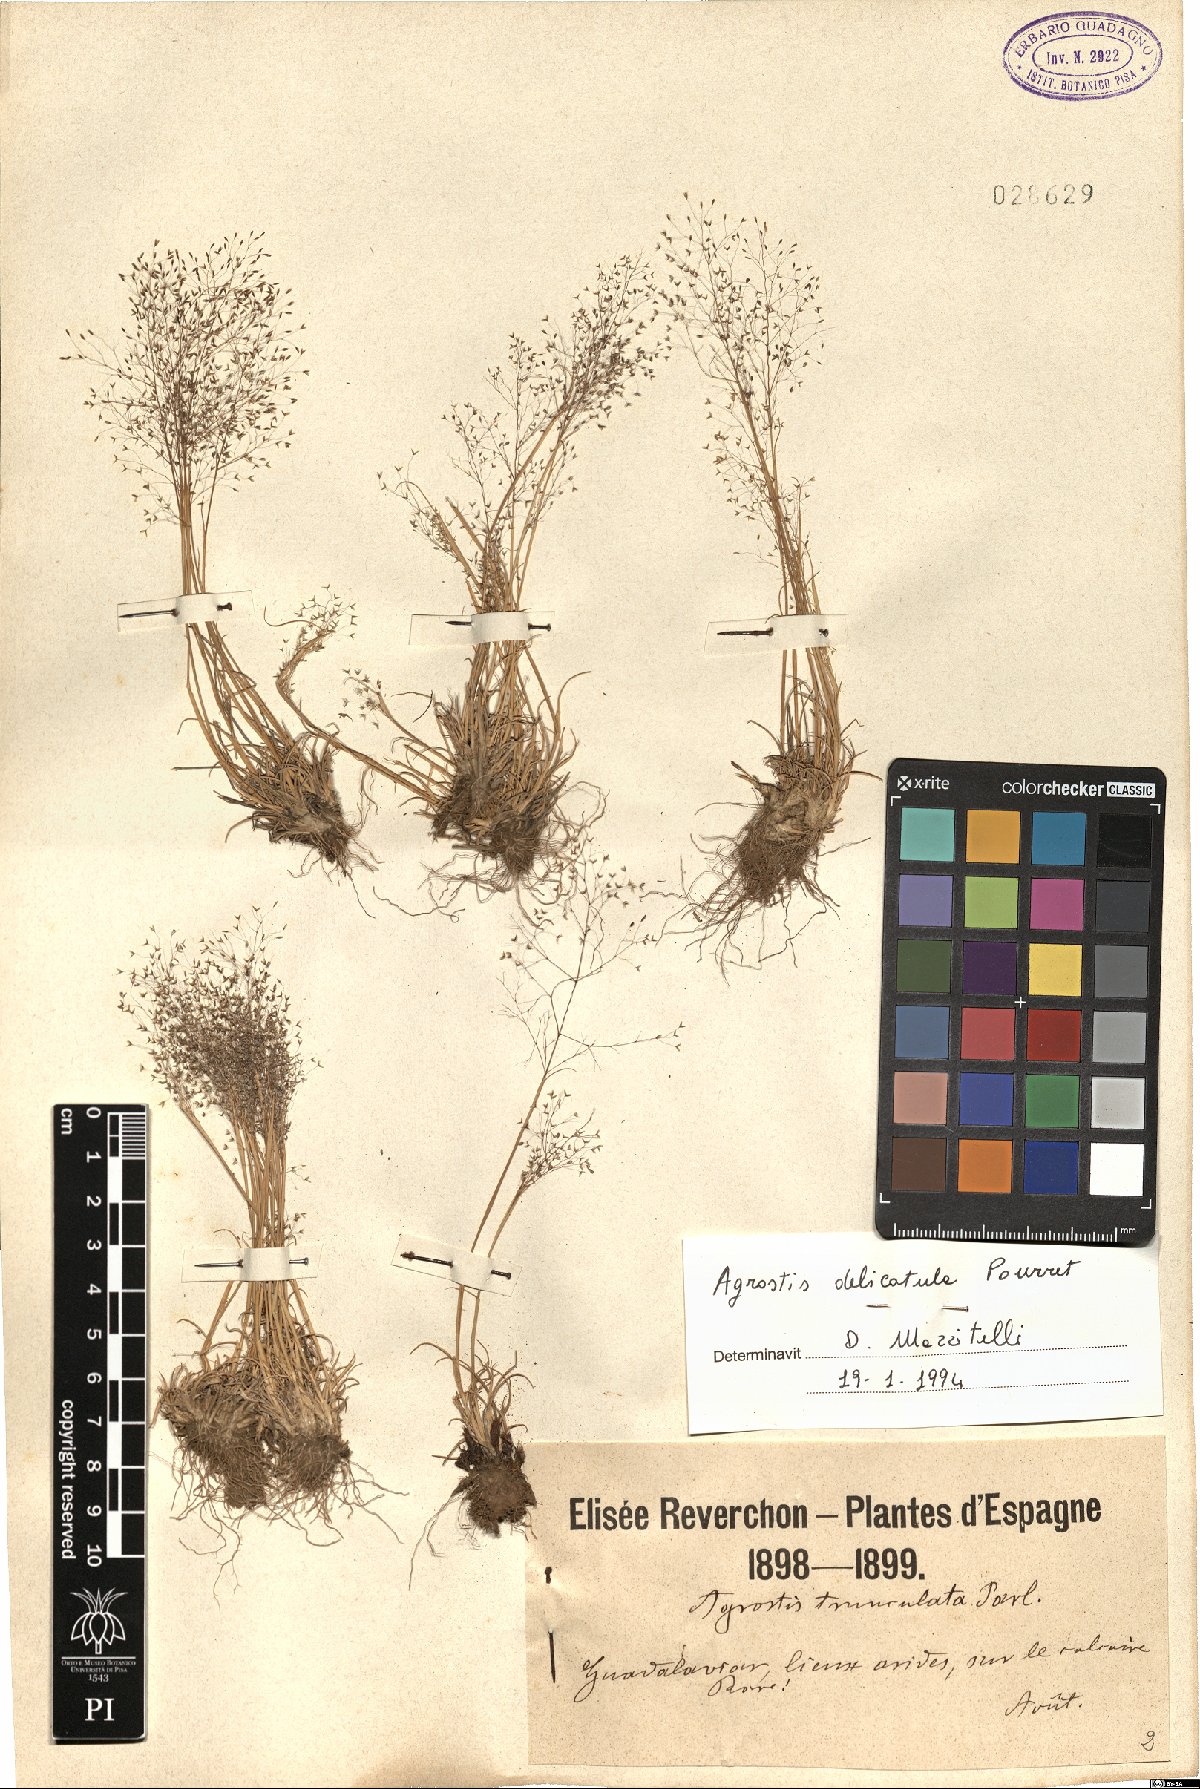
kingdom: Plantae
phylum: Tracheophyta
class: Liliopsida
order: Poales
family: Poaceae
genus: Agrostis
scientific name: Agrostis castellana
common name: Highland bent
